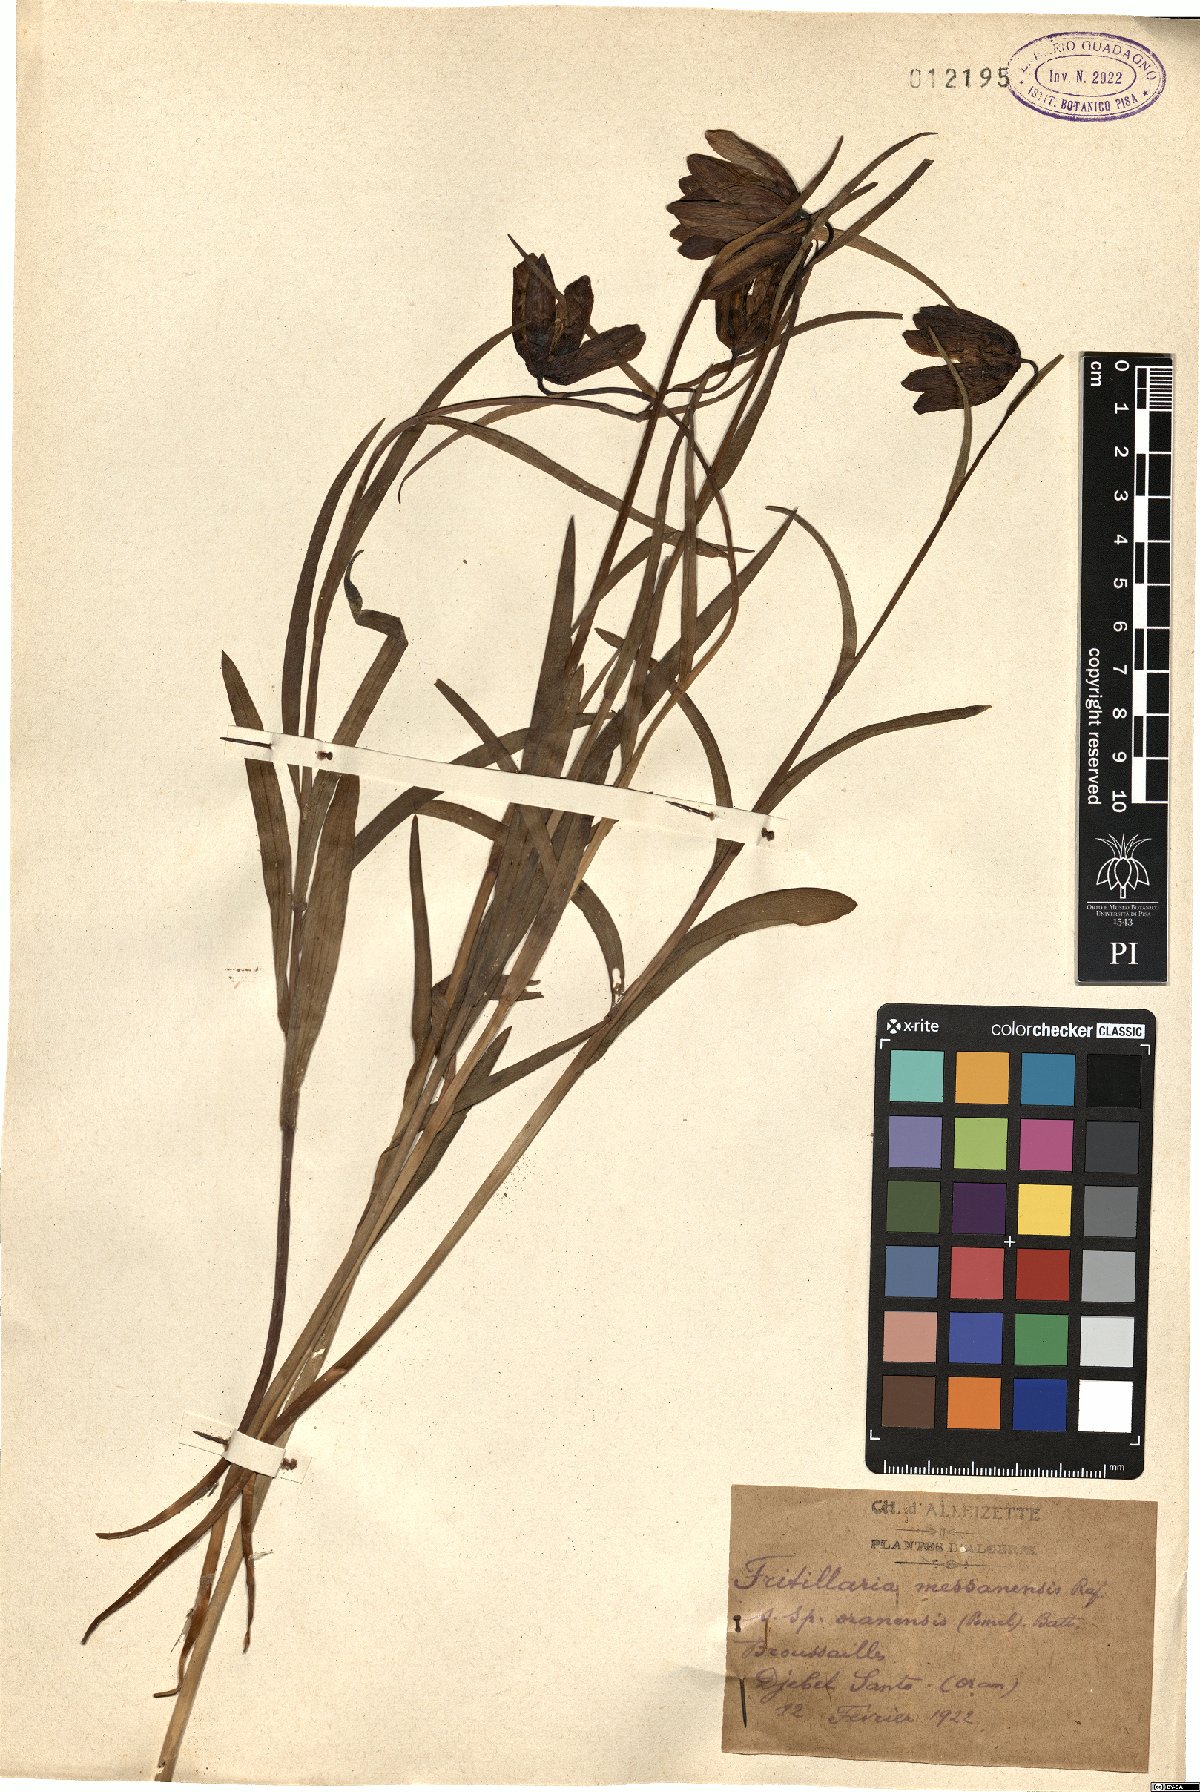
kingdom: Plantae
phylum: Tracheophyta
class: Liliopsida
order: Liliales
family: Liliaceae
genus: Fritillaria
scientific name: Fritillaria oranensis
